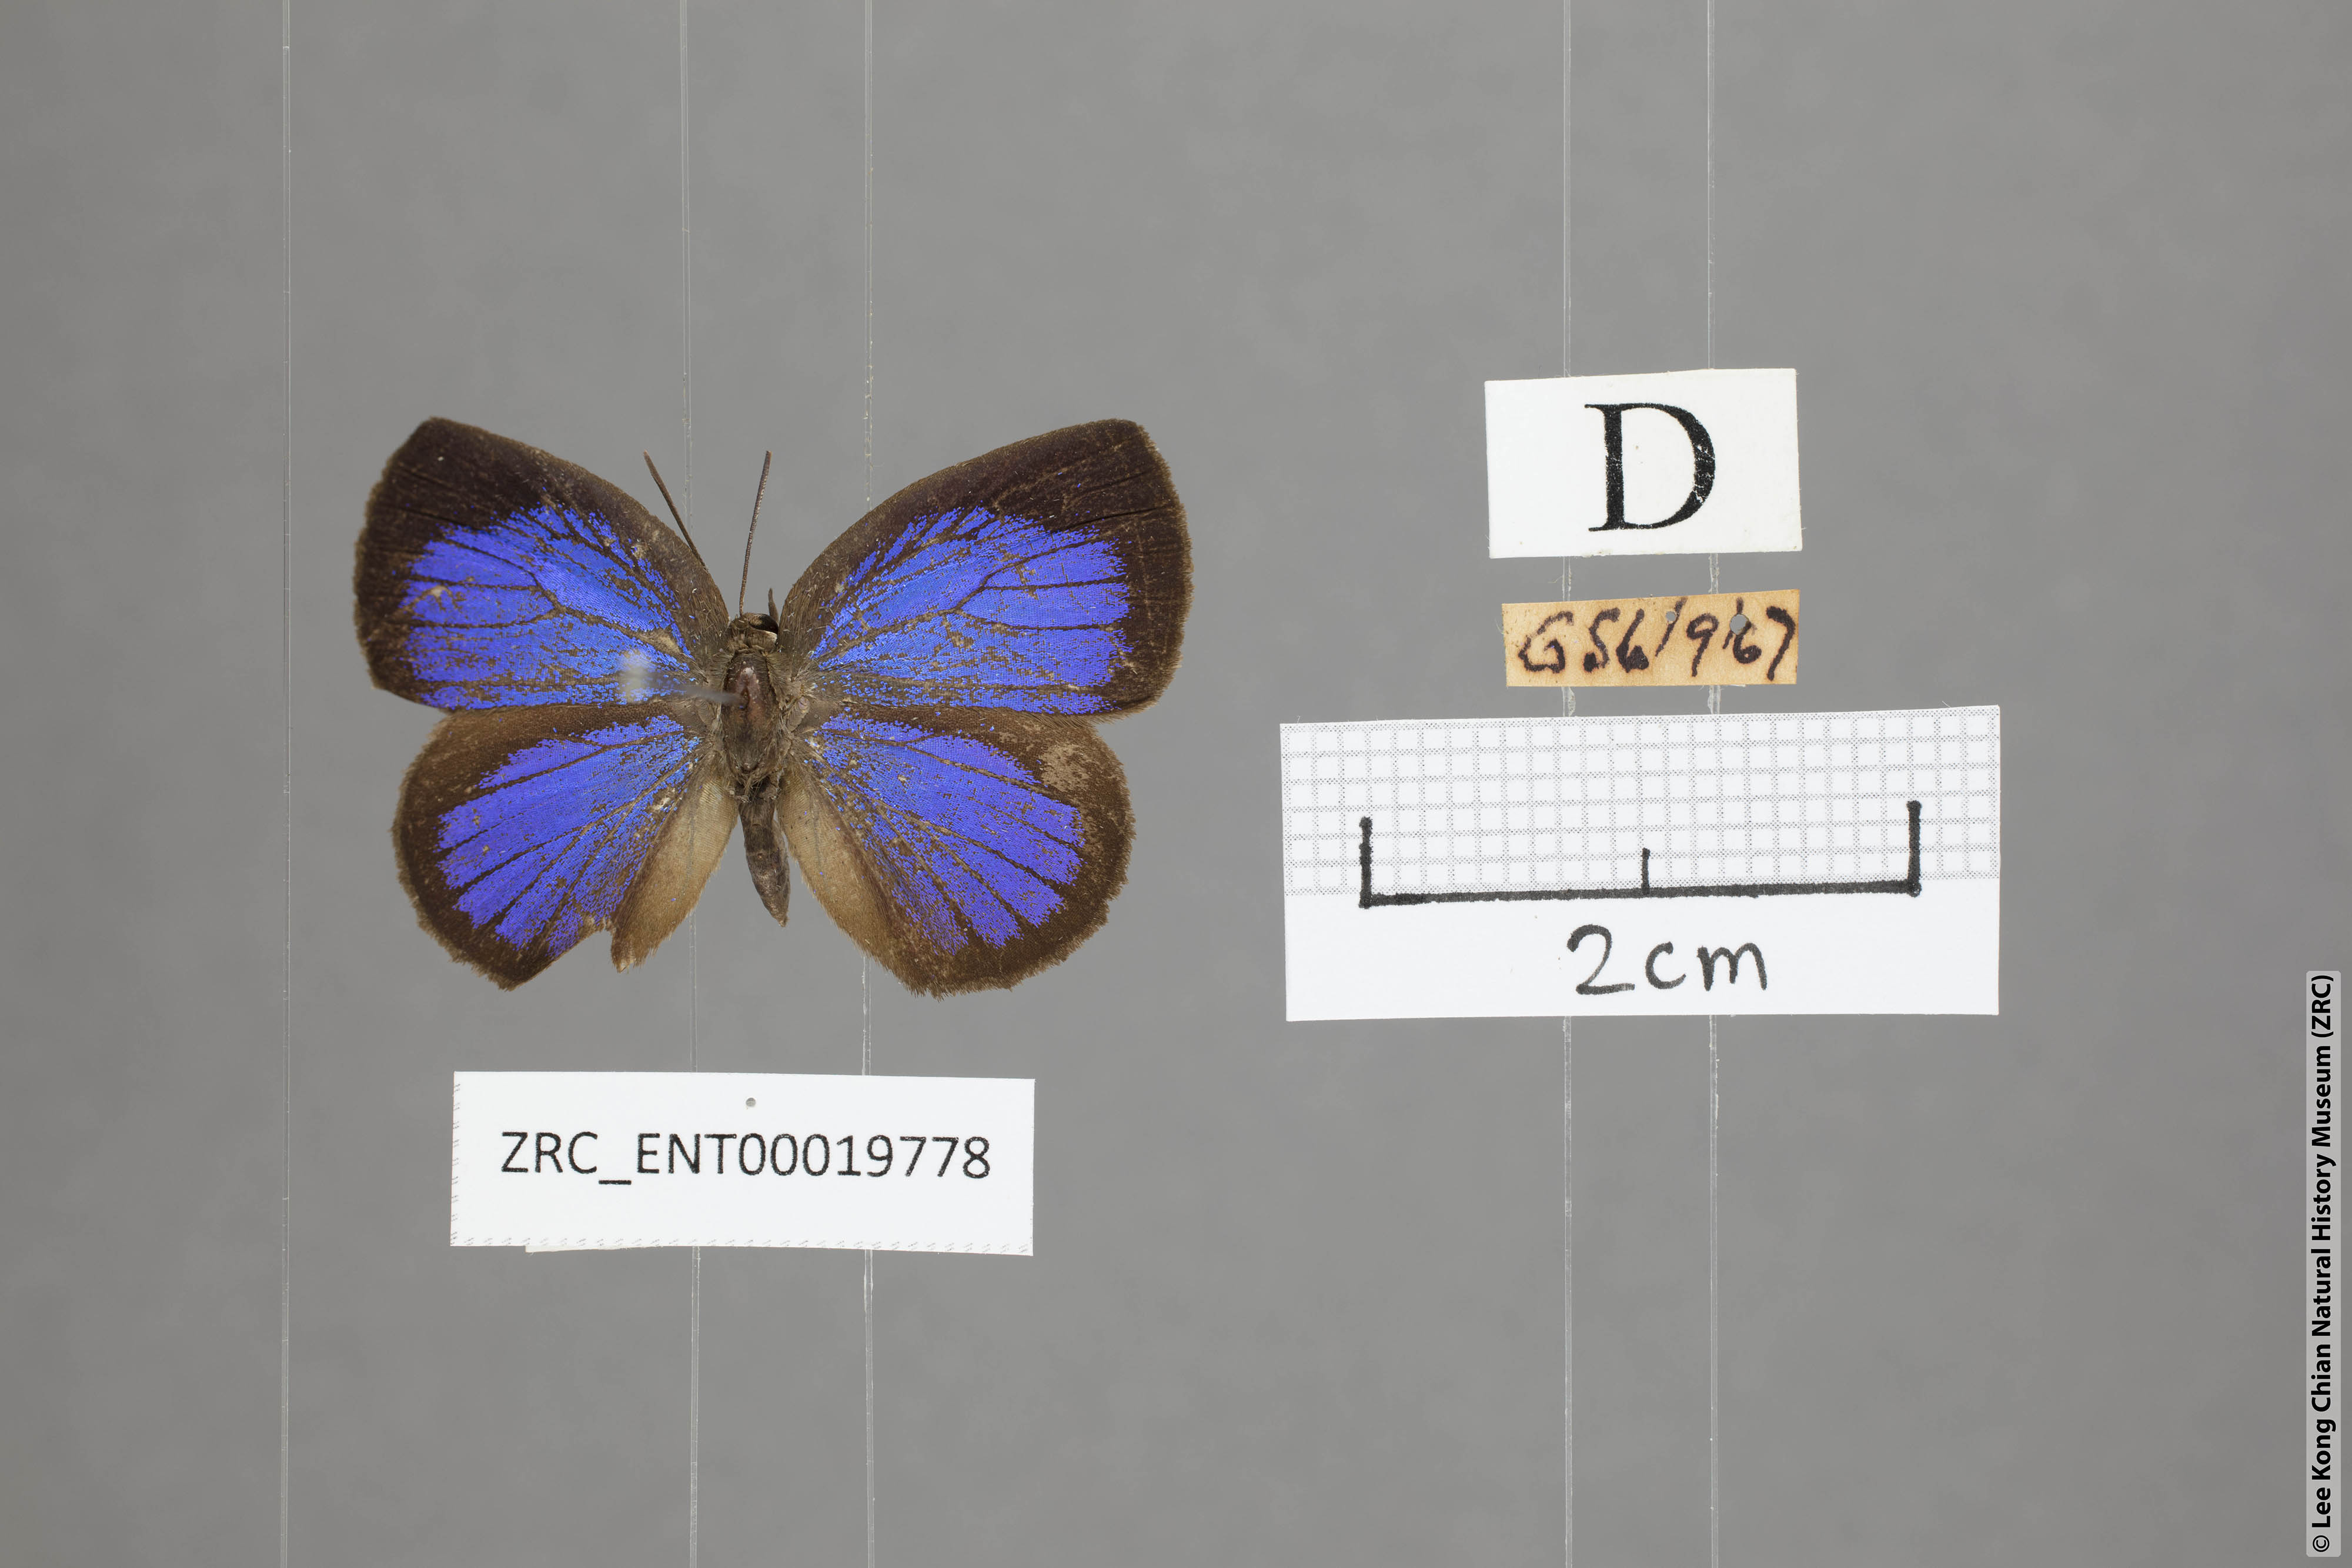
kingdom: Animalia
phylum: Arthropoda
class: Insecta
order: Lepidoptera
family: Lycaenidae
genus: Arhopala
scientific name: Arhopala perimuta
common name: Yellowdisc oakblue
